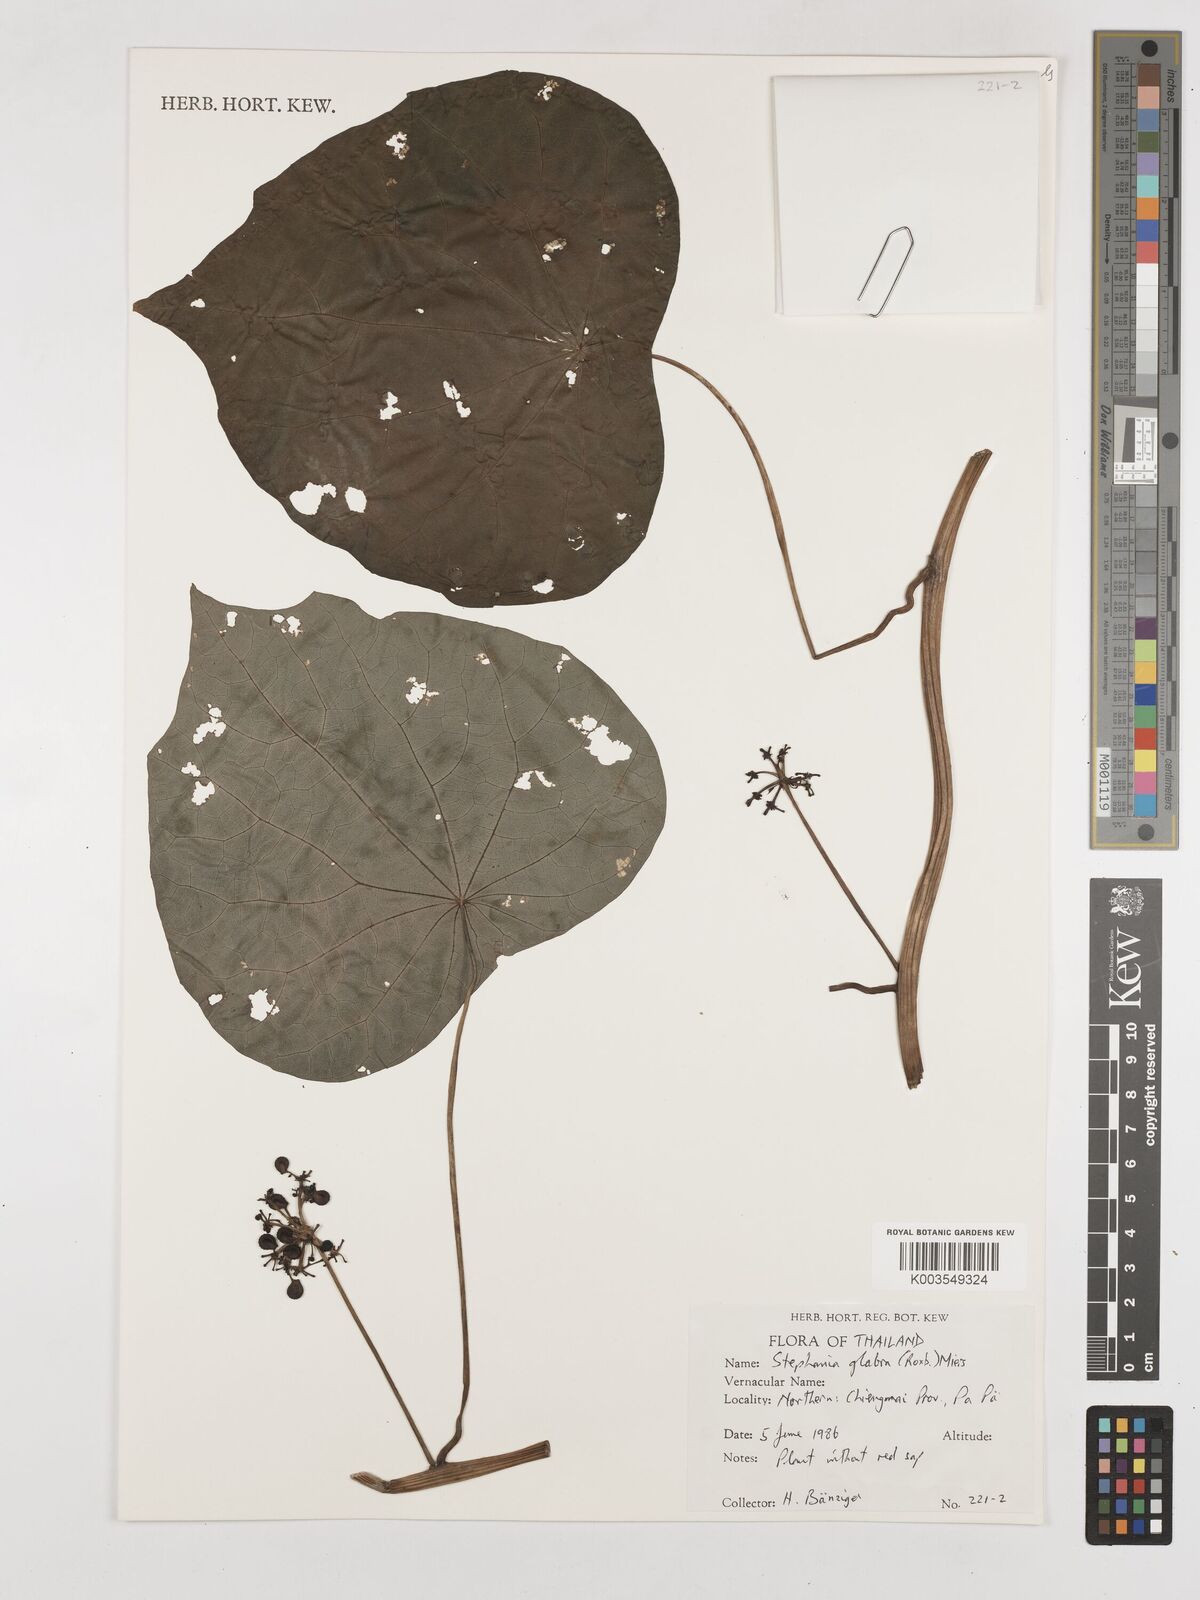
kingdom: Plantae
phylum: Tracheophyta
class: Magnoliopsida
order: Ranunculales
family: Menispermaceae
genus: Stephania
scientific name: Stephania rotunda
